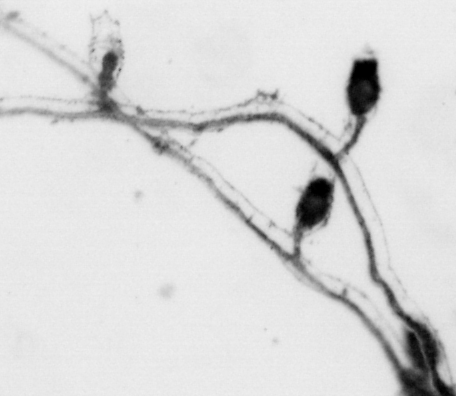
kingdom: Animalia
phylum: Cnidaria
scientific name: Cnidaria
